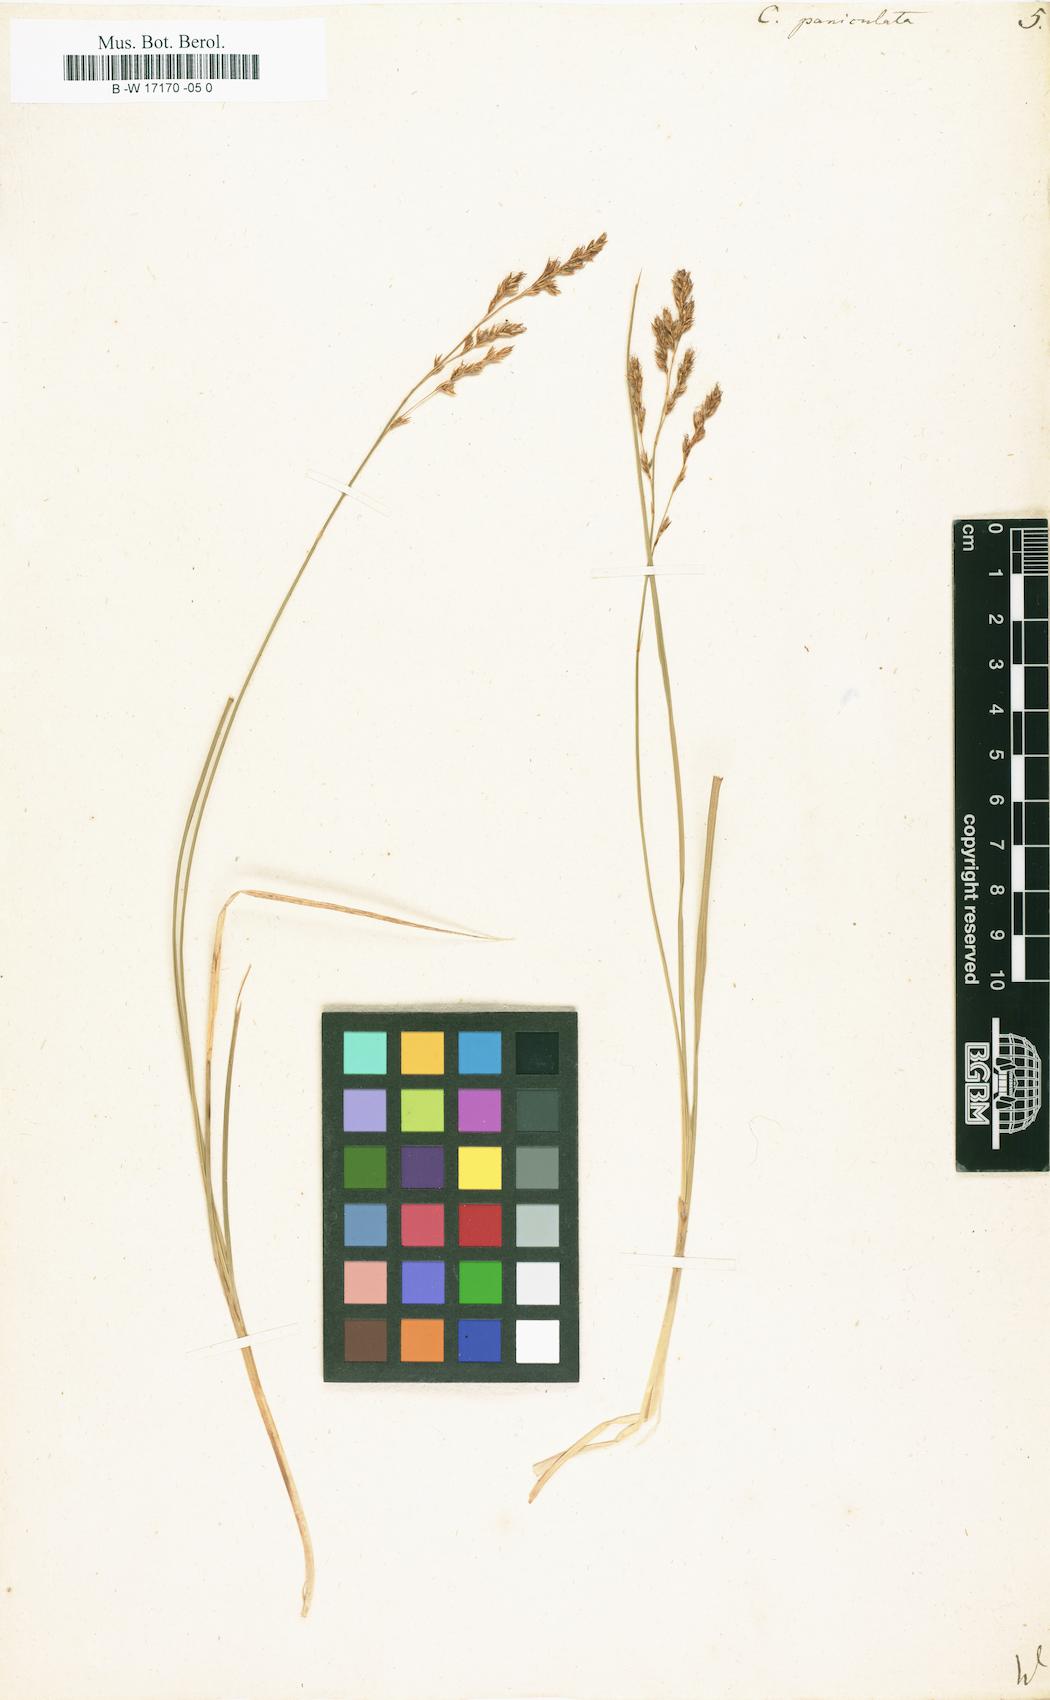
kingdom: Plantae
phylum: Tracheophyta
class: Liliopsida
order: Poales
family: Cyperaceae
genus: Carex
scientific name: Carex paniculata
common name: Greater tussock-sedge
